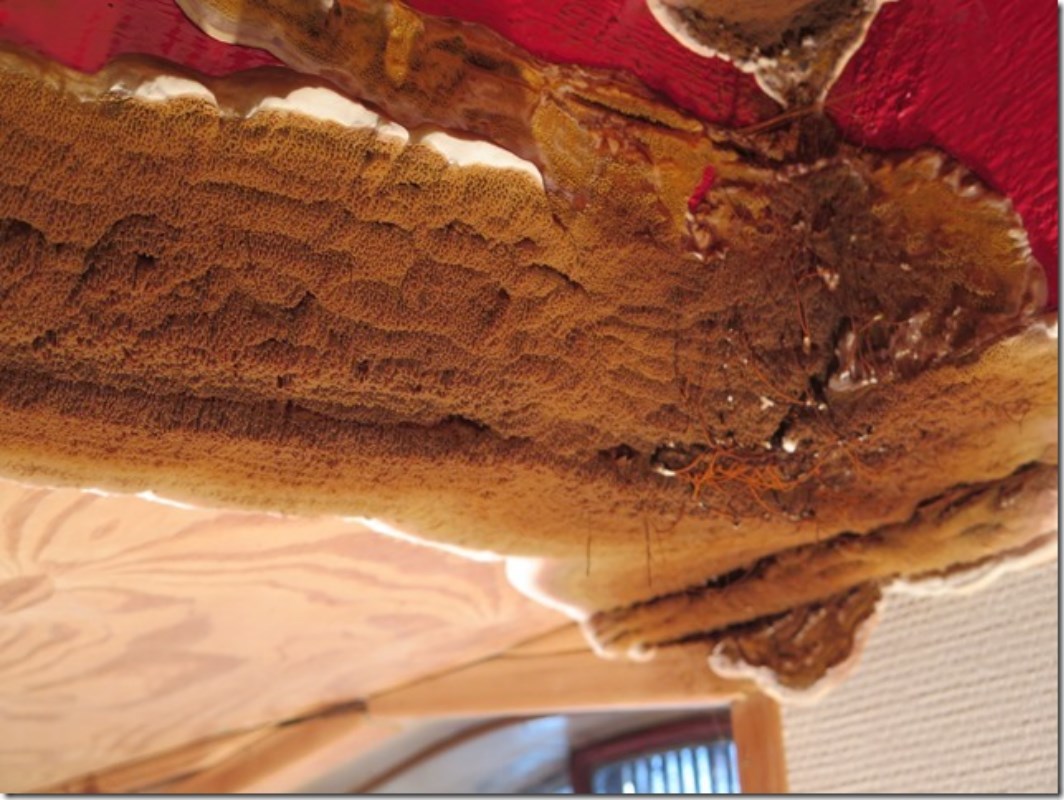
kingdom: Fungi
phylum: Basidiomycota
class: Agaricomycetes
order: Boletales
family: Serpulaceae
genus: Serpula
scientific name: Serpula lacrymans
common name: ægte hussvamp
